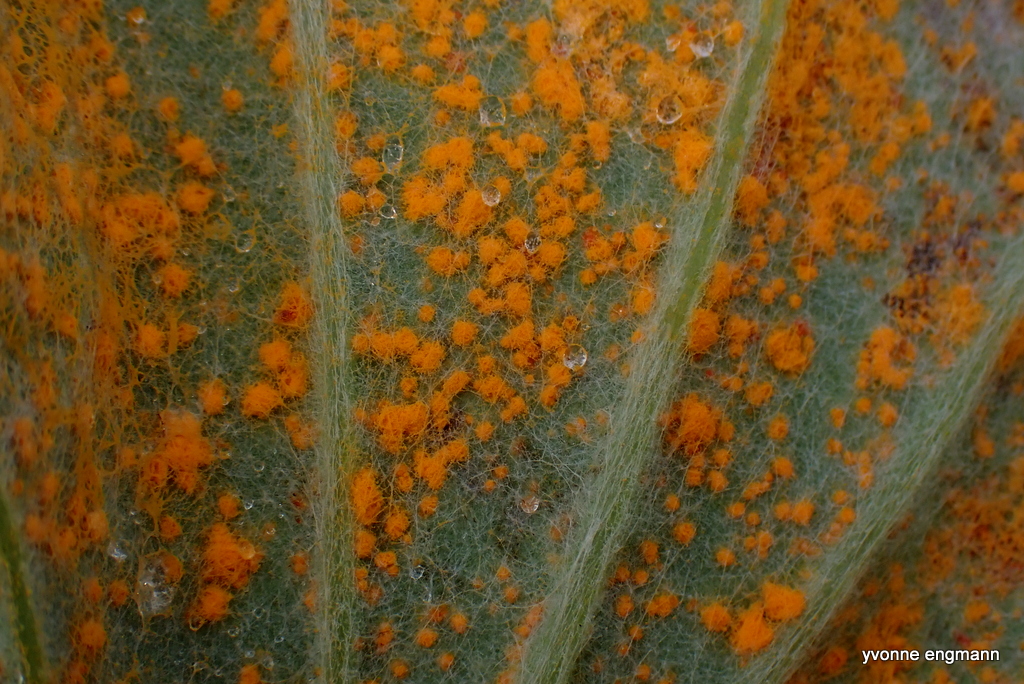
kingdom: Fungi
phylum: Basidiomycota
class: Pucciniomycetes
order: Pucciniales
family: Coleosporiaceae
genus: Coleosporium
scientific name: Coleosporium tussilaginis
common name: almindelig fyrrenålerust
